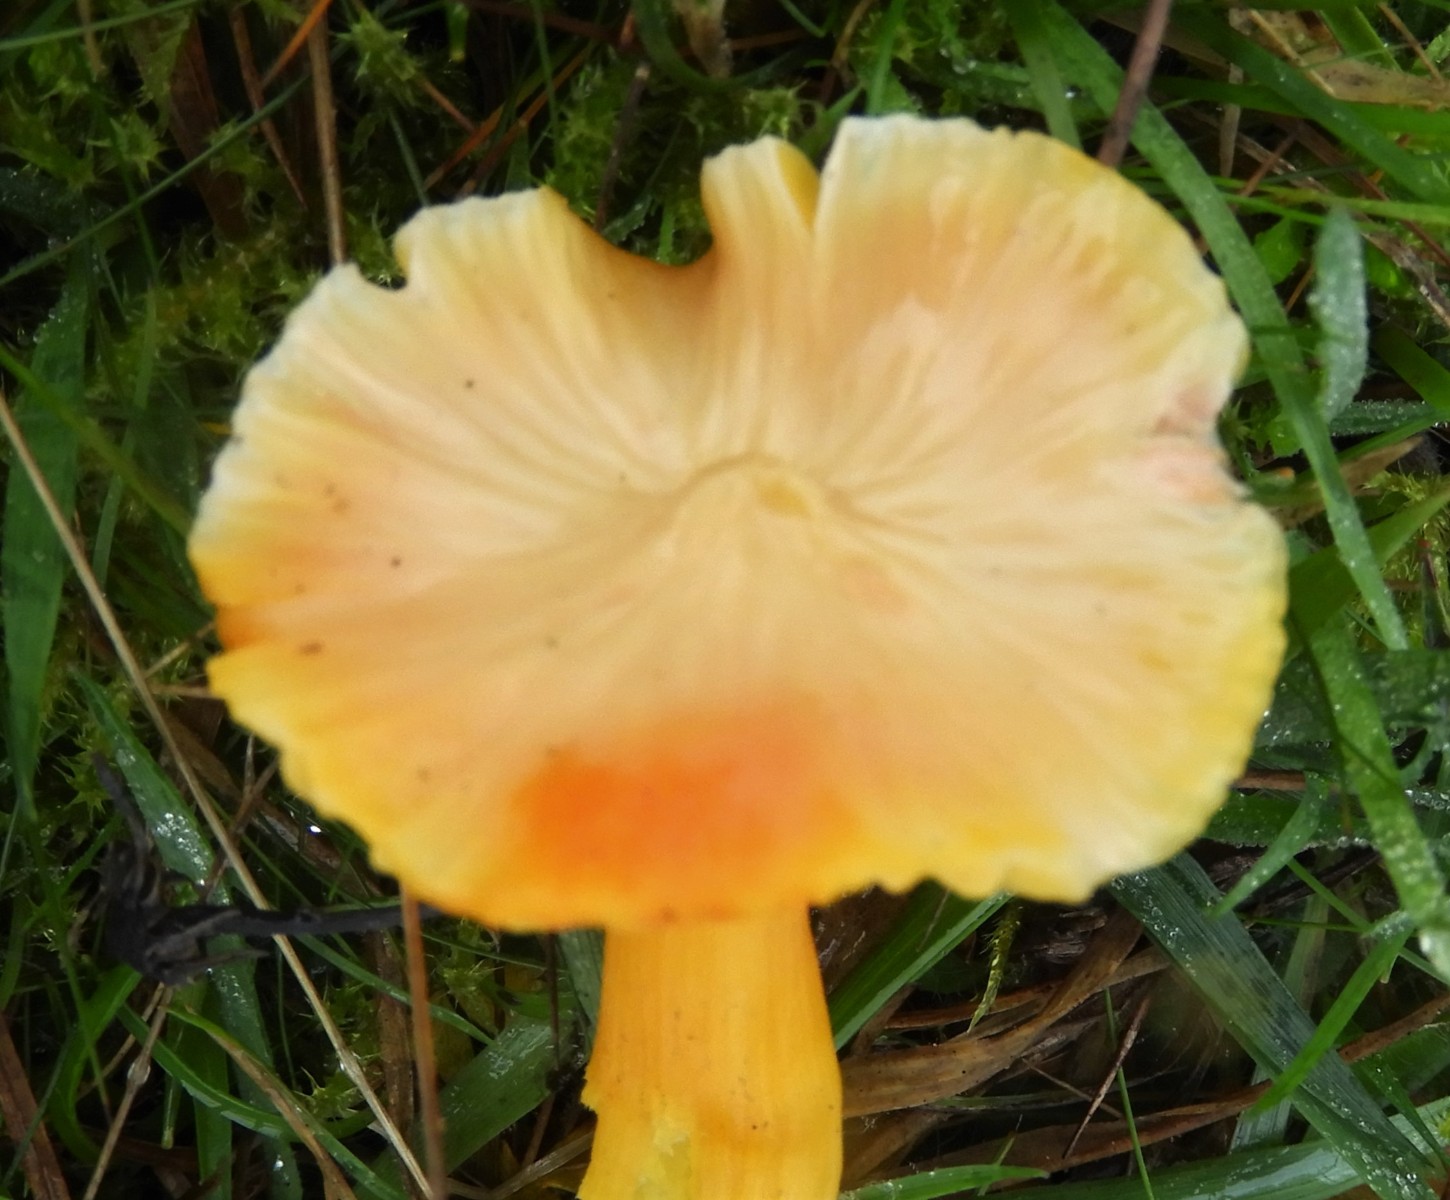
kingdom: Fungi
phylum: Basidiomycota
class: Agaricomycetes
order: Agaricales
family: Hygrophoraceae
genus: Hygrocybe
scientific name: Hygrocybe chlorophana
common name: gul vokshat
